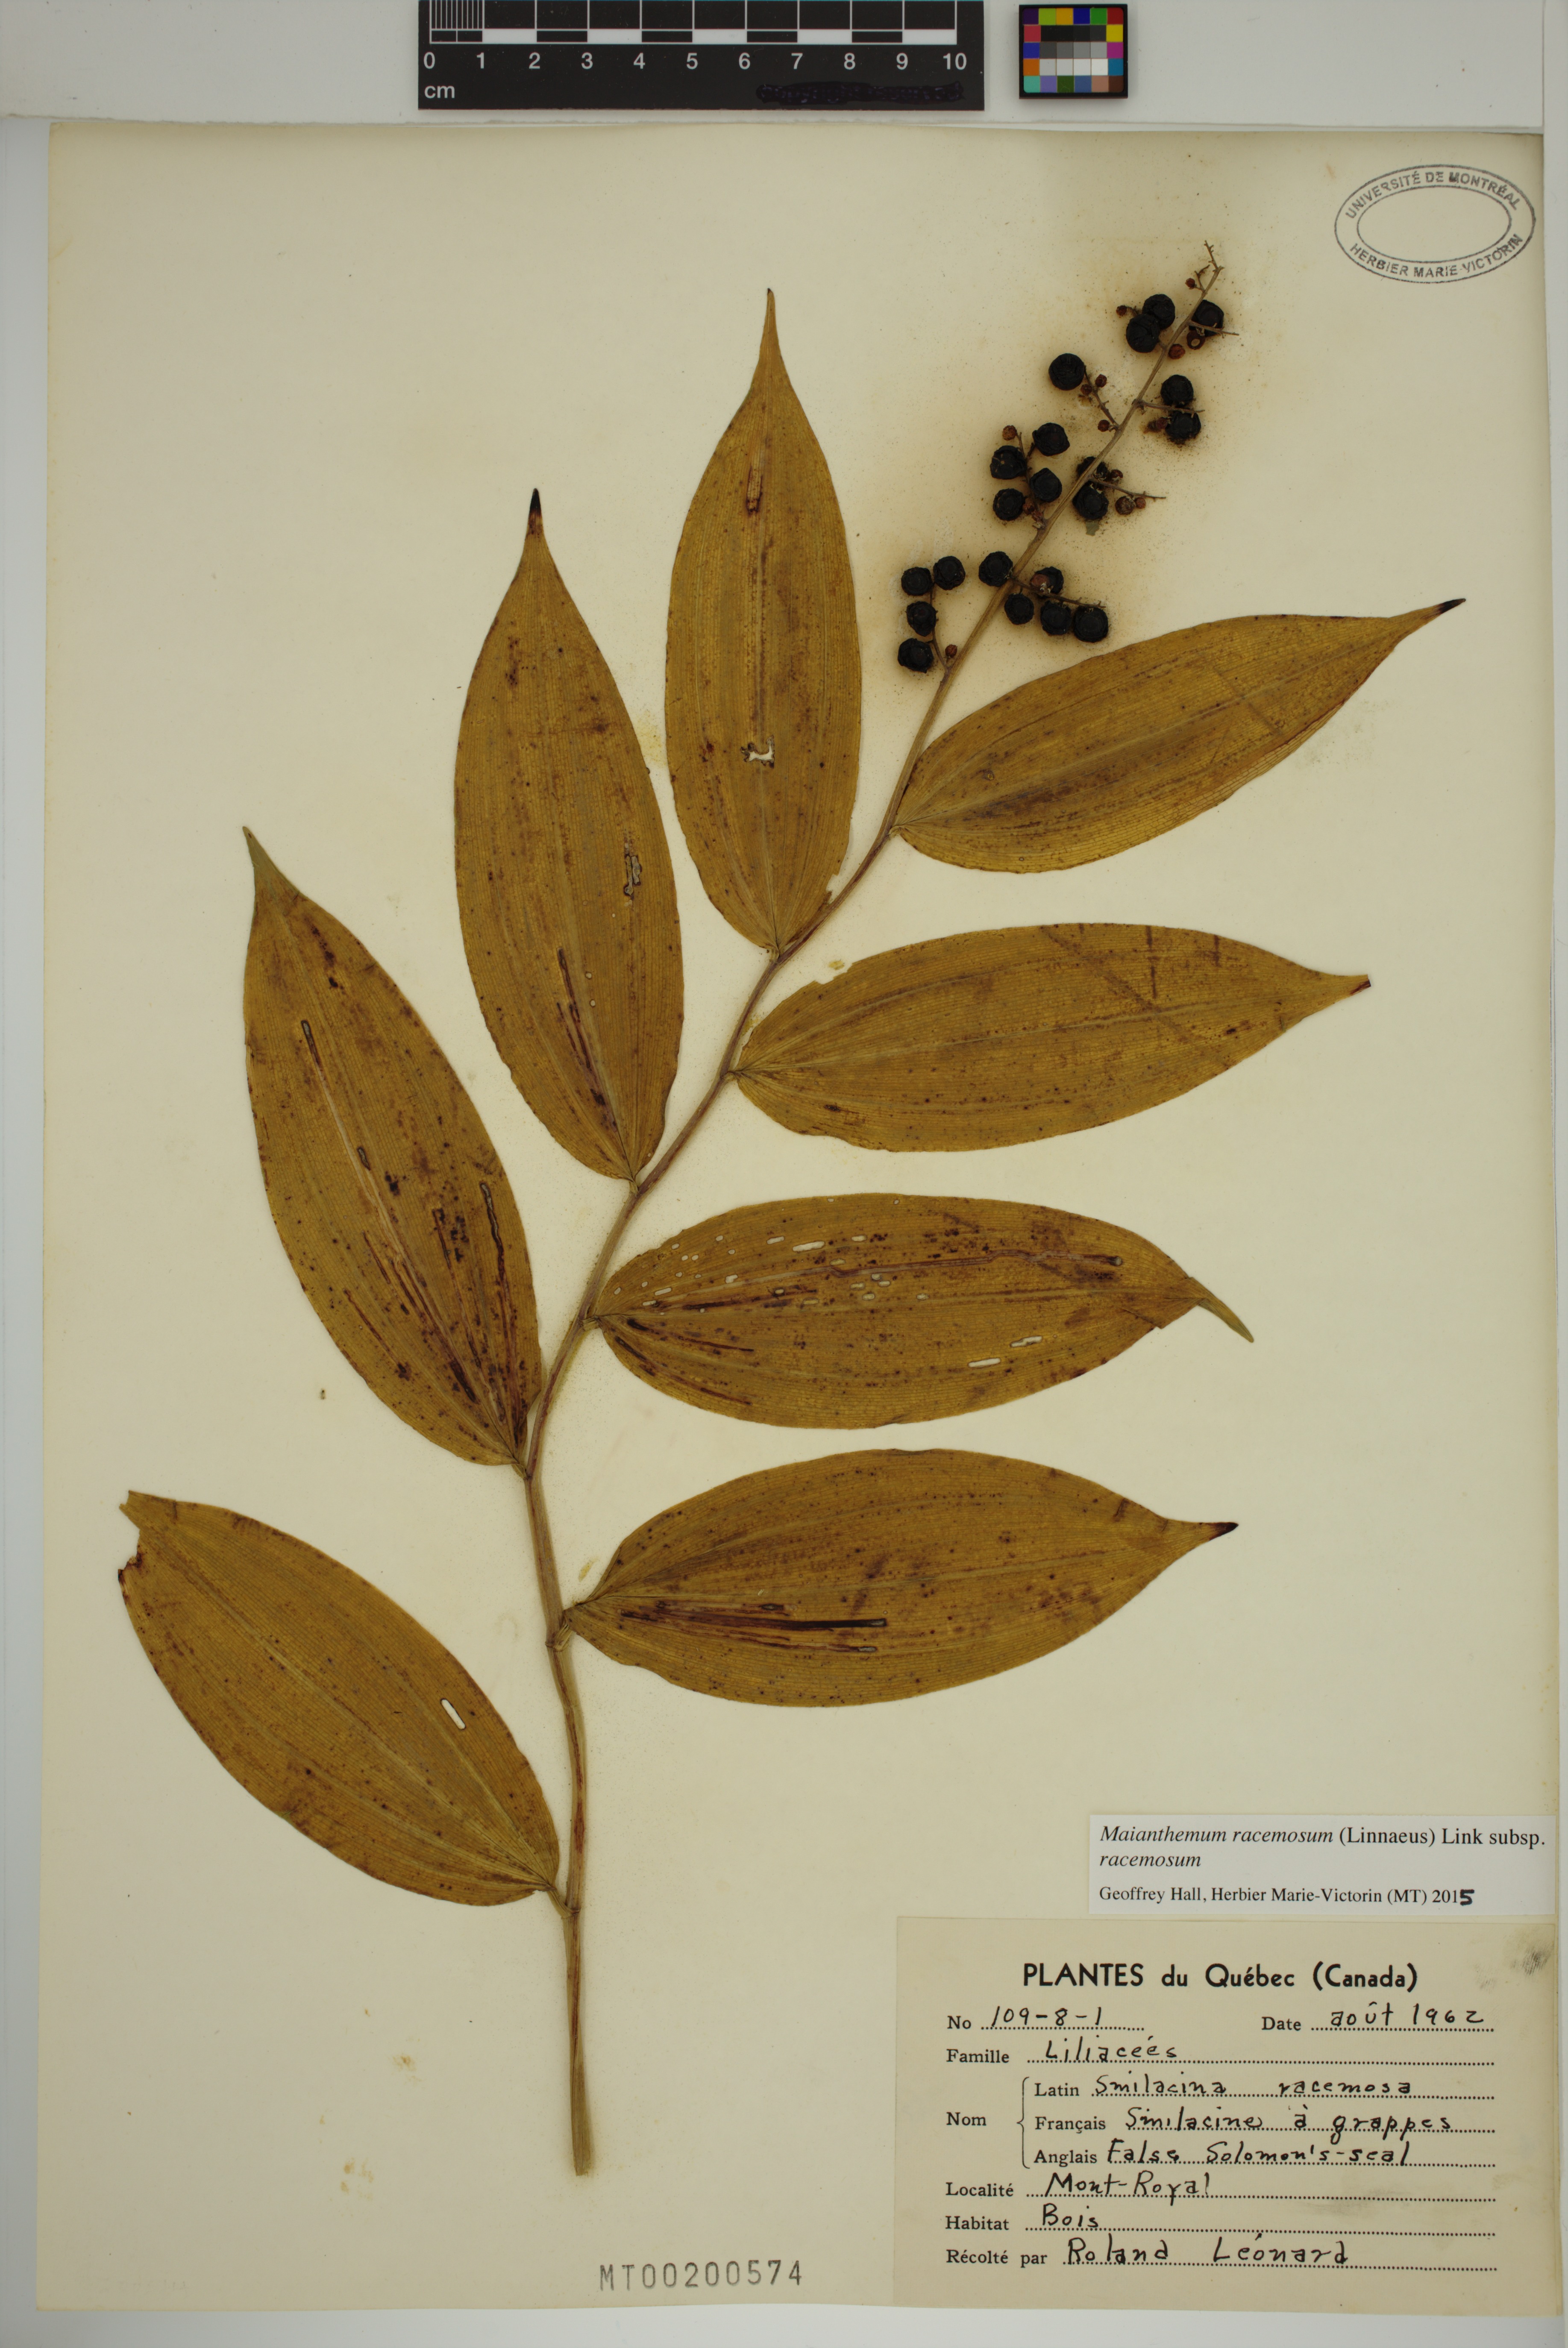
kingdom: Plantae
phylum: Tracheophyta
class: Liliopsida
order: Asparagales
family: Asparagaceae
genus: Maianthemum
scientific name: Maianthemum racemosum
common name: False spikenard
